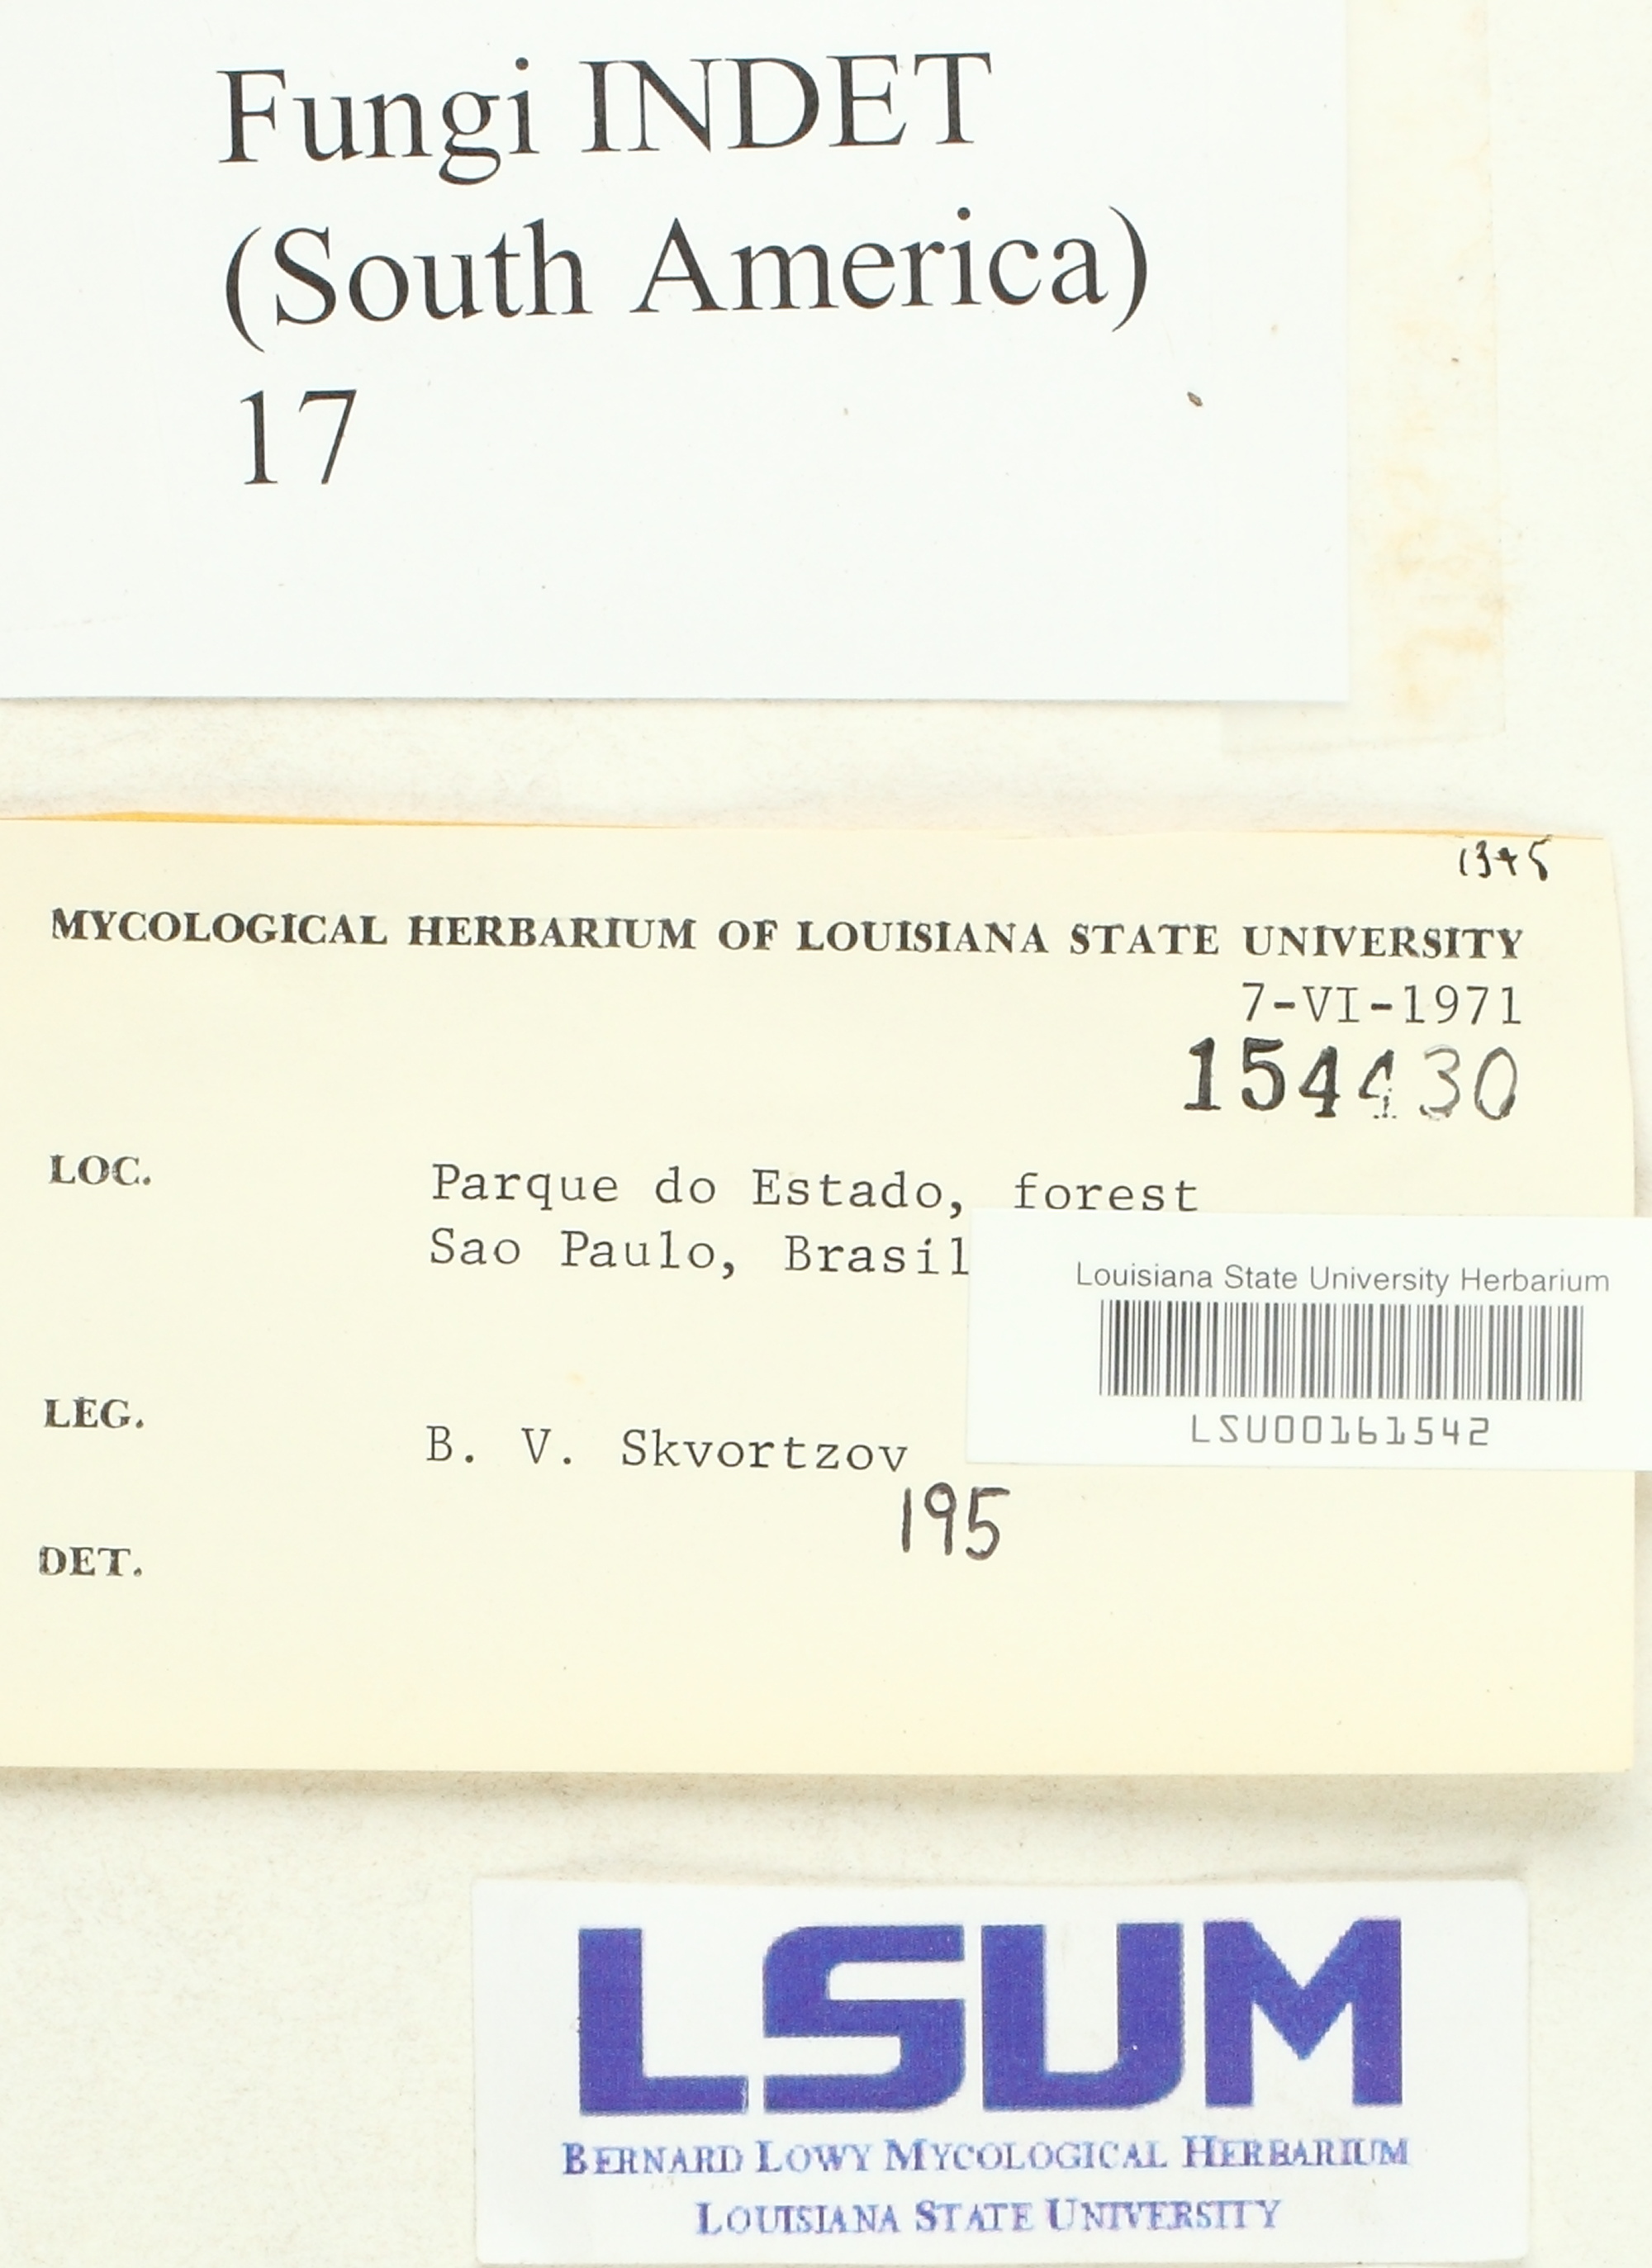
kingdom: Fungi
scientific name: Fungi
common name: Fungi
